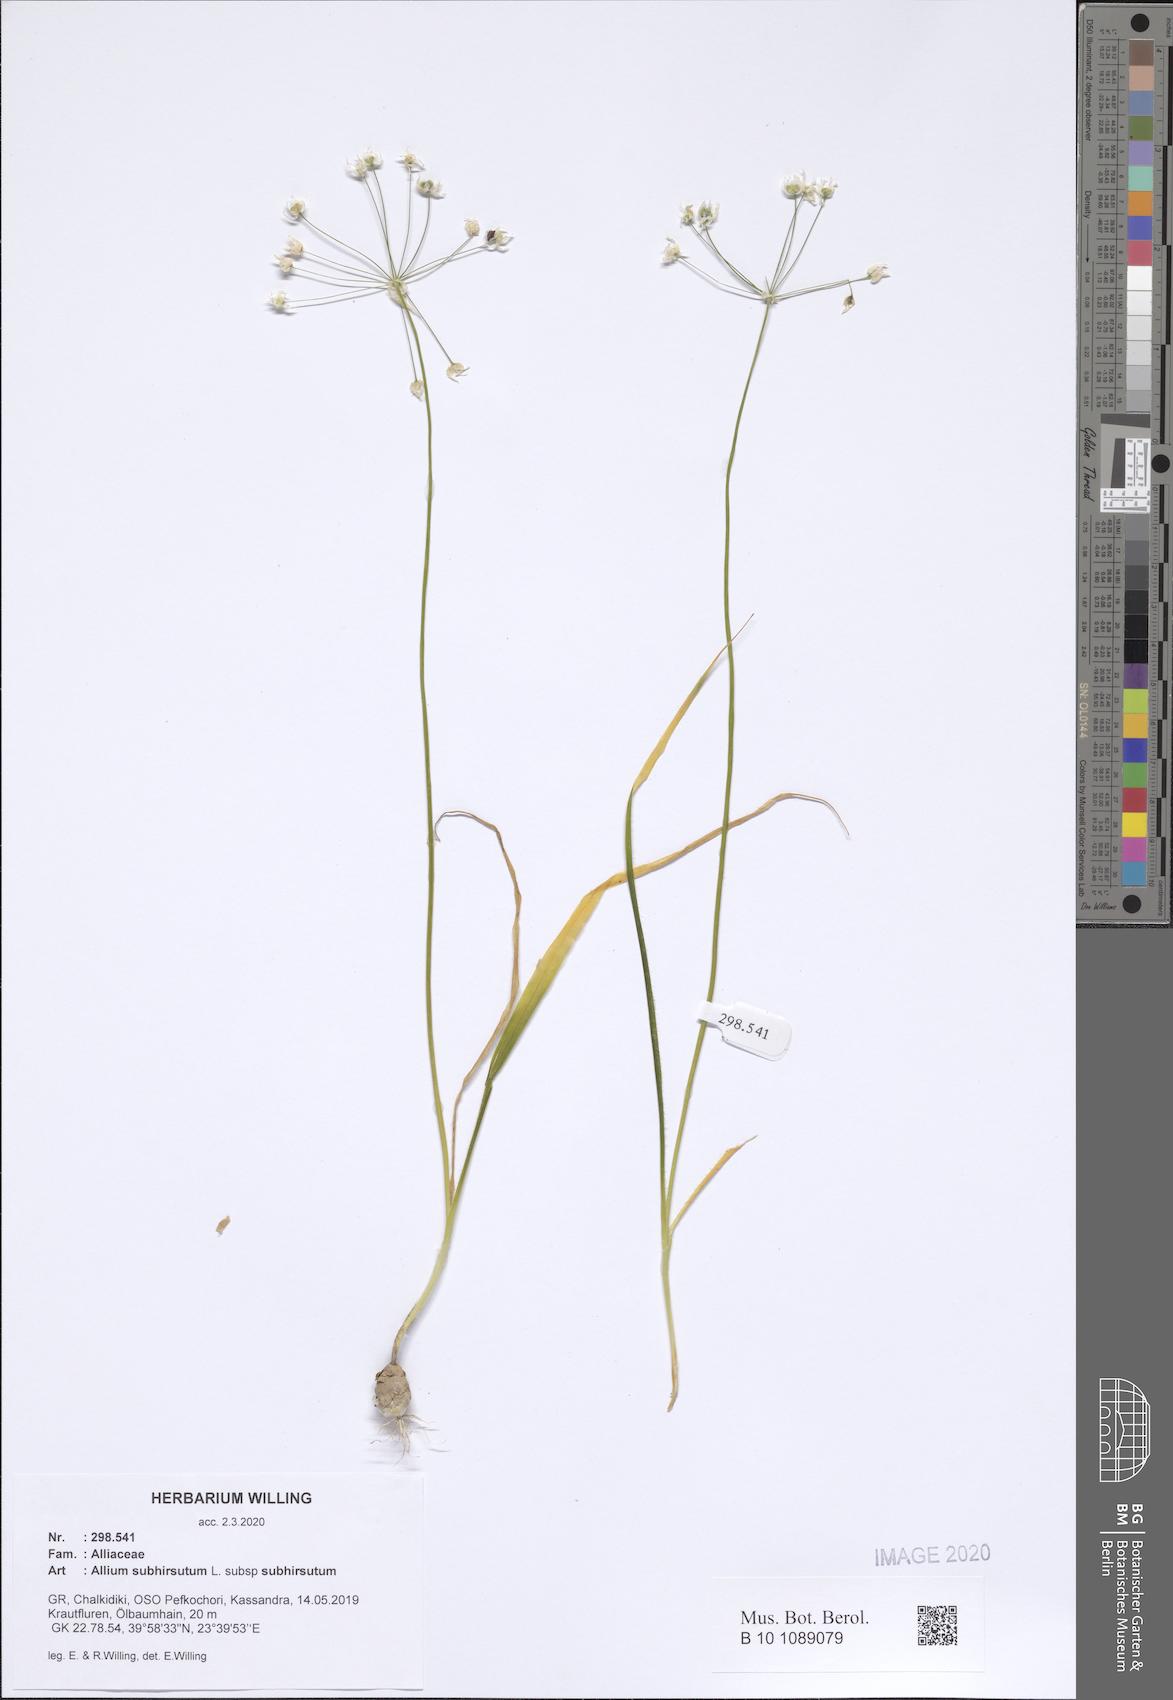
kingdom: Plantae
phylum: Tracheophyta
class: Liliopsida
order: Asparagales
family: Amaryllidaceae
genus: Allium
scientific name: Allium subhirsutum
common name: Hairy garlic
